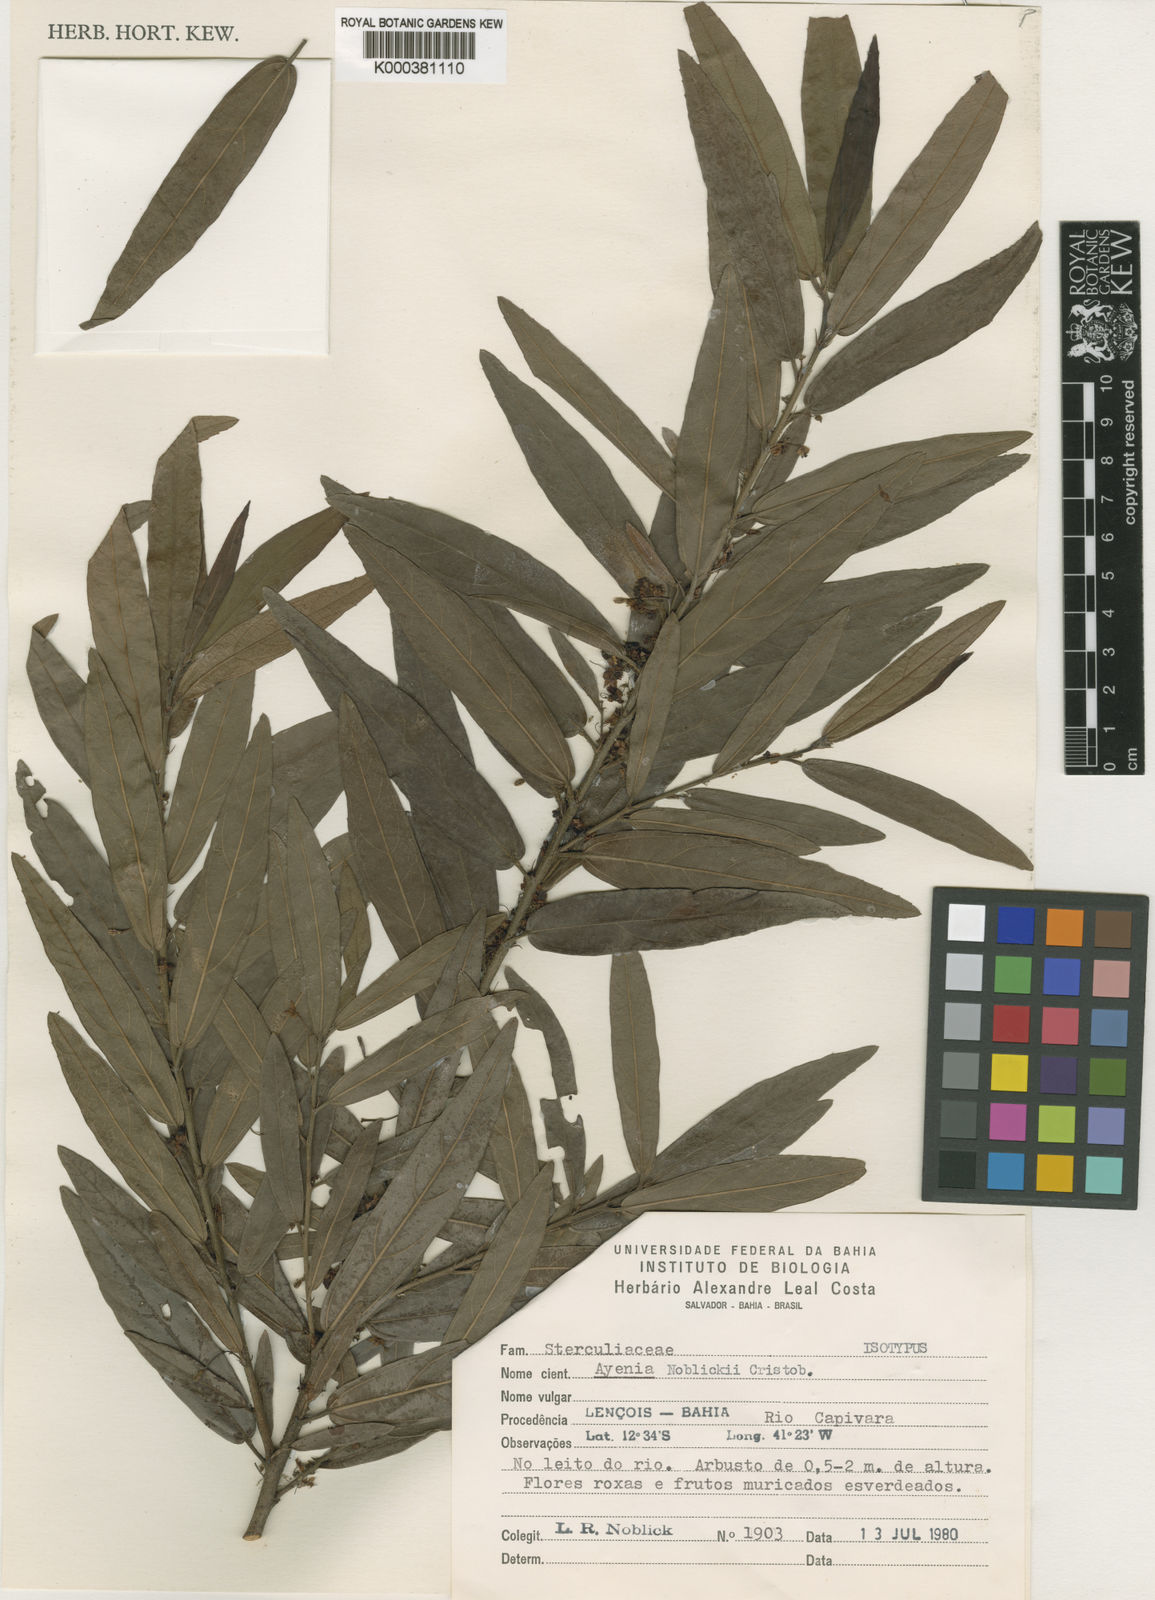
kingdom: Plantae
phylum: Tracheophyta
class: Magnoliopsida
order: Malvales
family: Malvaceae
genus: Ayenia
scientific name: Ayenia
